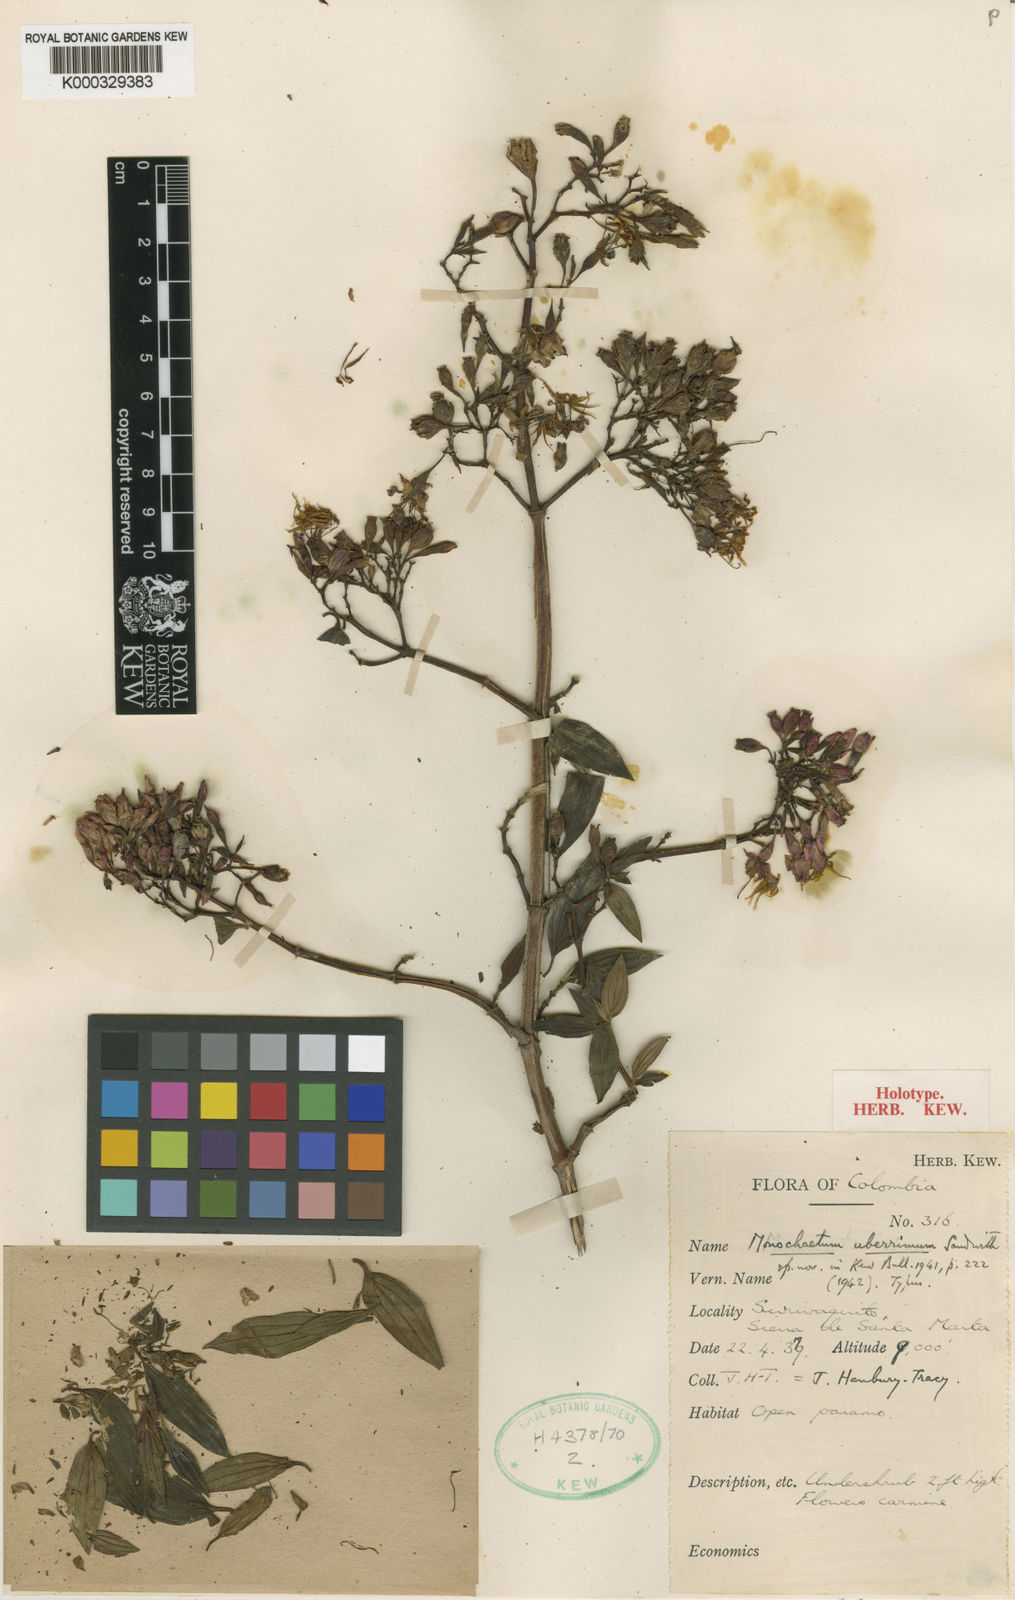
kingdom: Plantae
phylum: Tracheophyta
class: Magnoliopsida
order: Myrtales
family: Melastomataceae
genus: Monochaetum
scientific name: Monochaetum uberrimum
